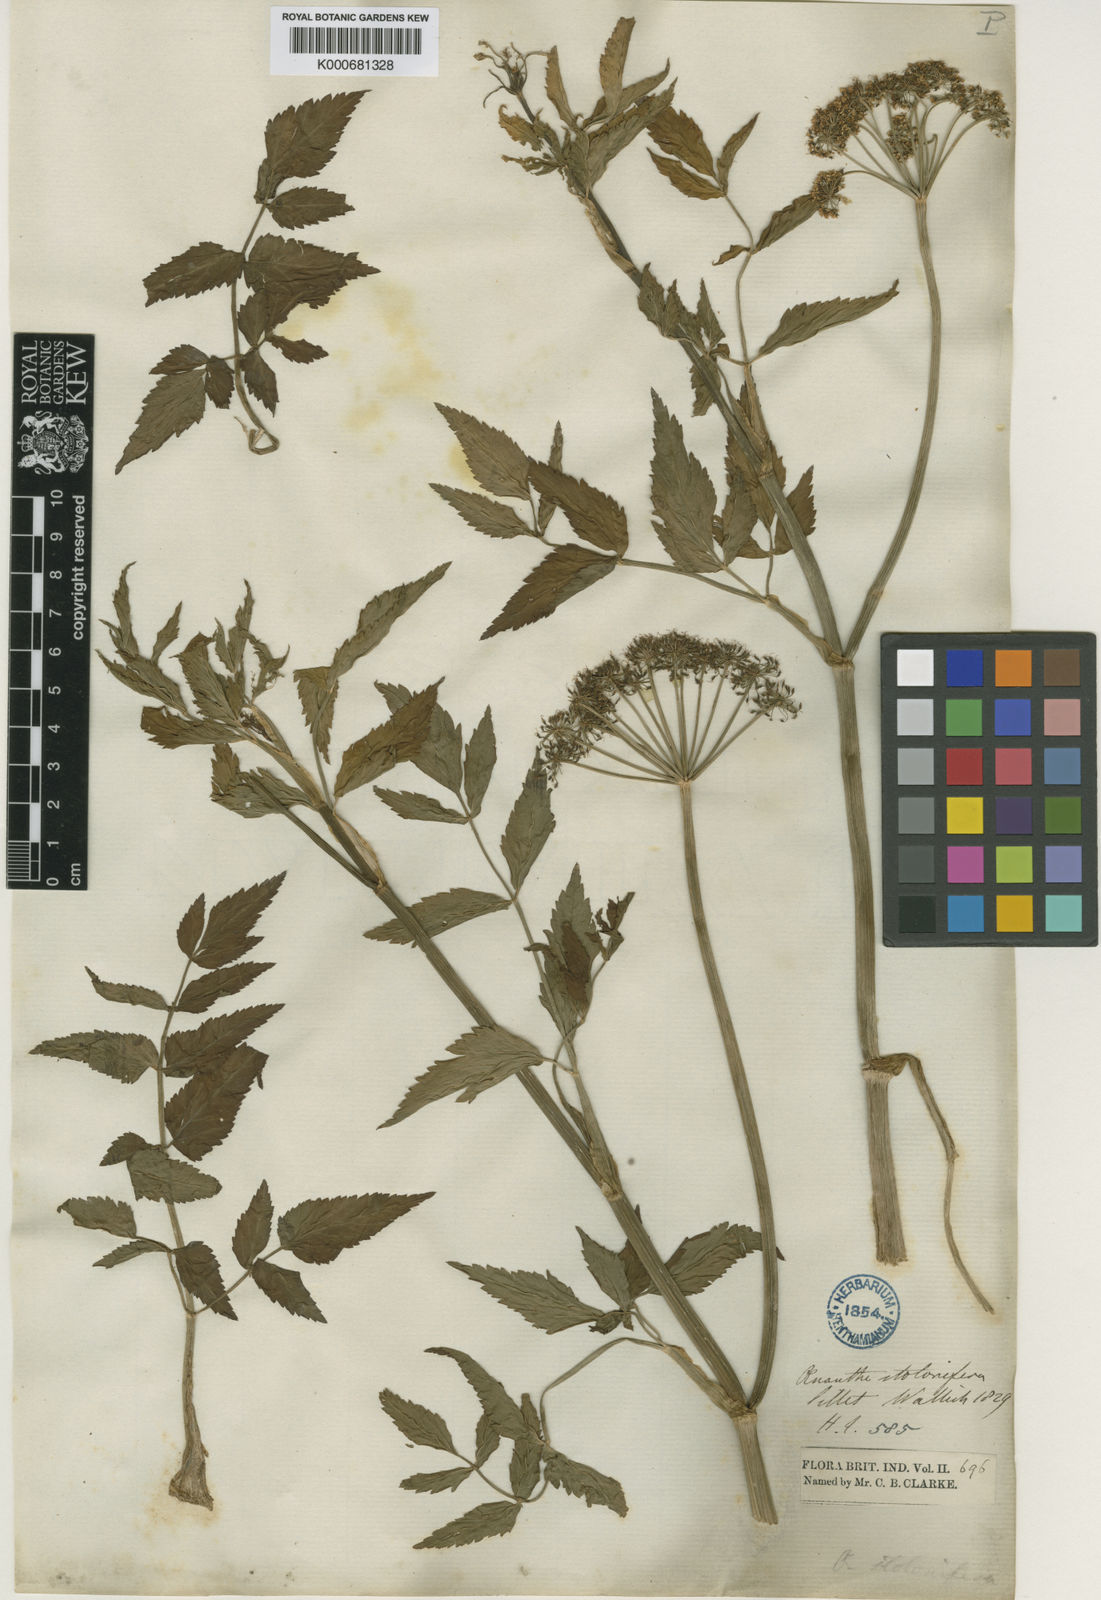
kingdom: Plantae
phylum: Tracheophyta
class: Magnoliopsida
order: Apiales
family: Apiaceae
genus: Oenanthe
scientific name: Oenanthe javanica
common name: Java water-dropwort
